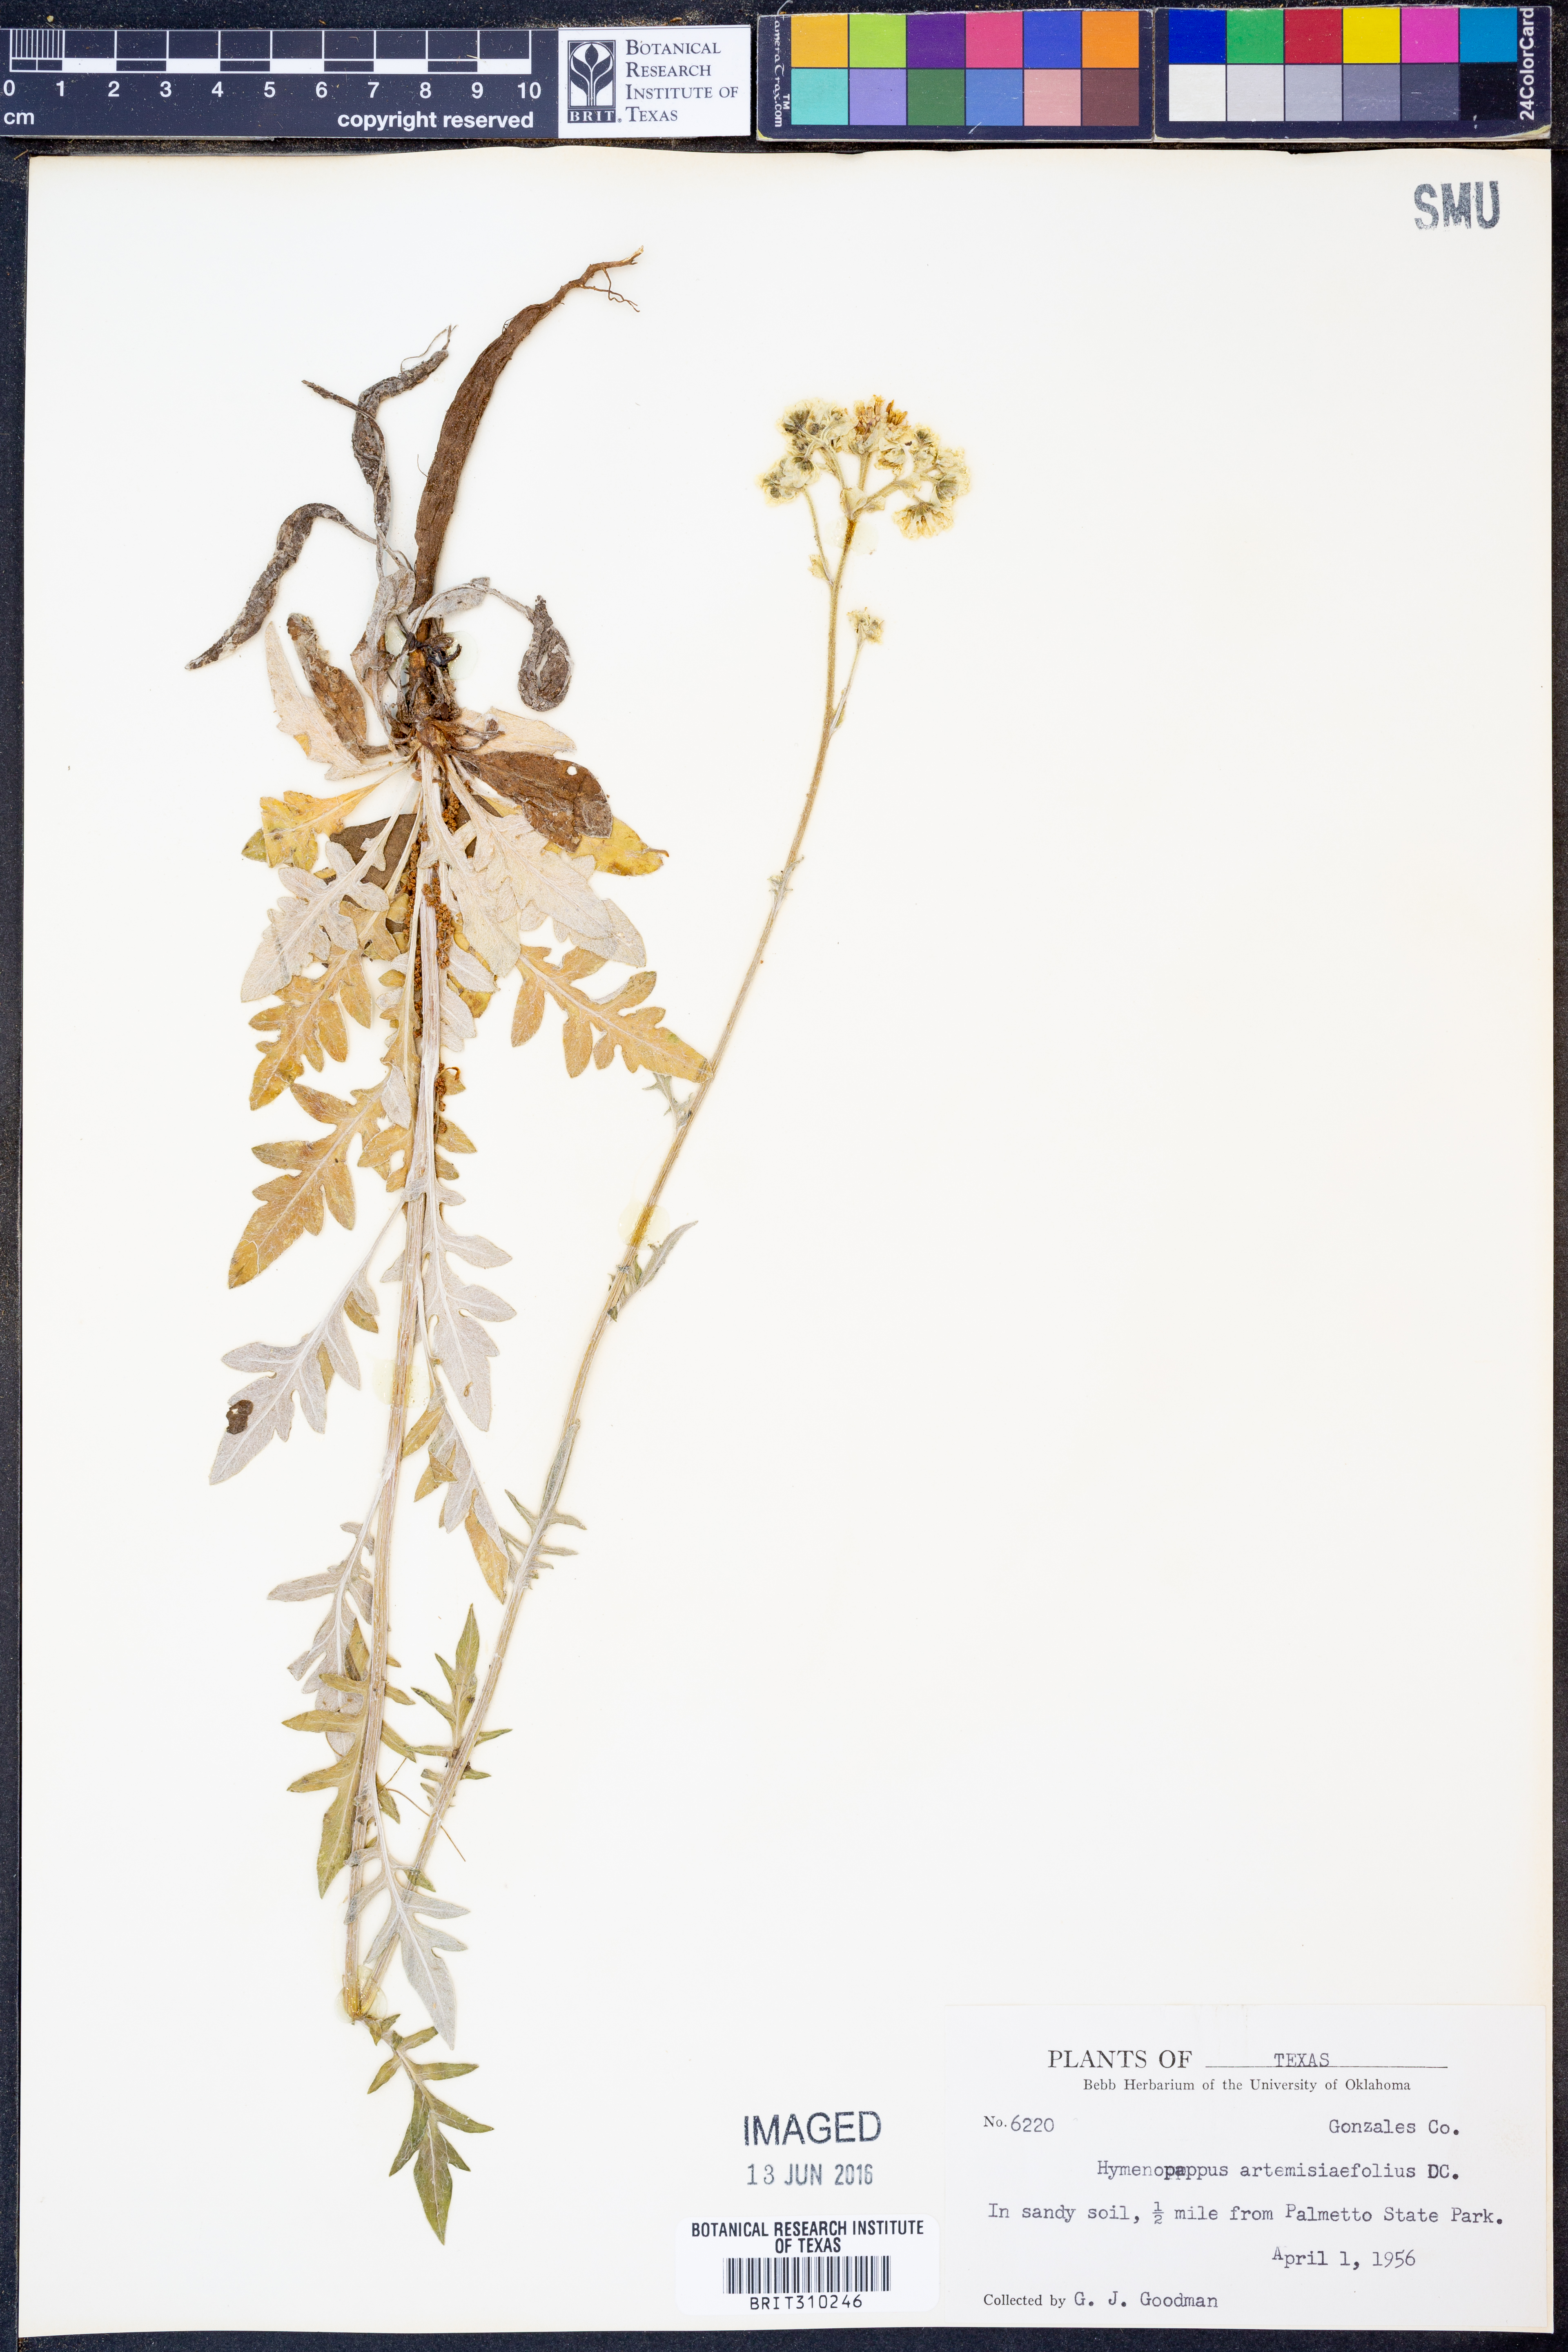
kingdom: Plantae
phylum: Tracheophyta
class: Magnoliopsida
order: Asterales
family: Asteraceae
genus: Hymenopappus
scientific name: Hymenopappus artemisiifolius
